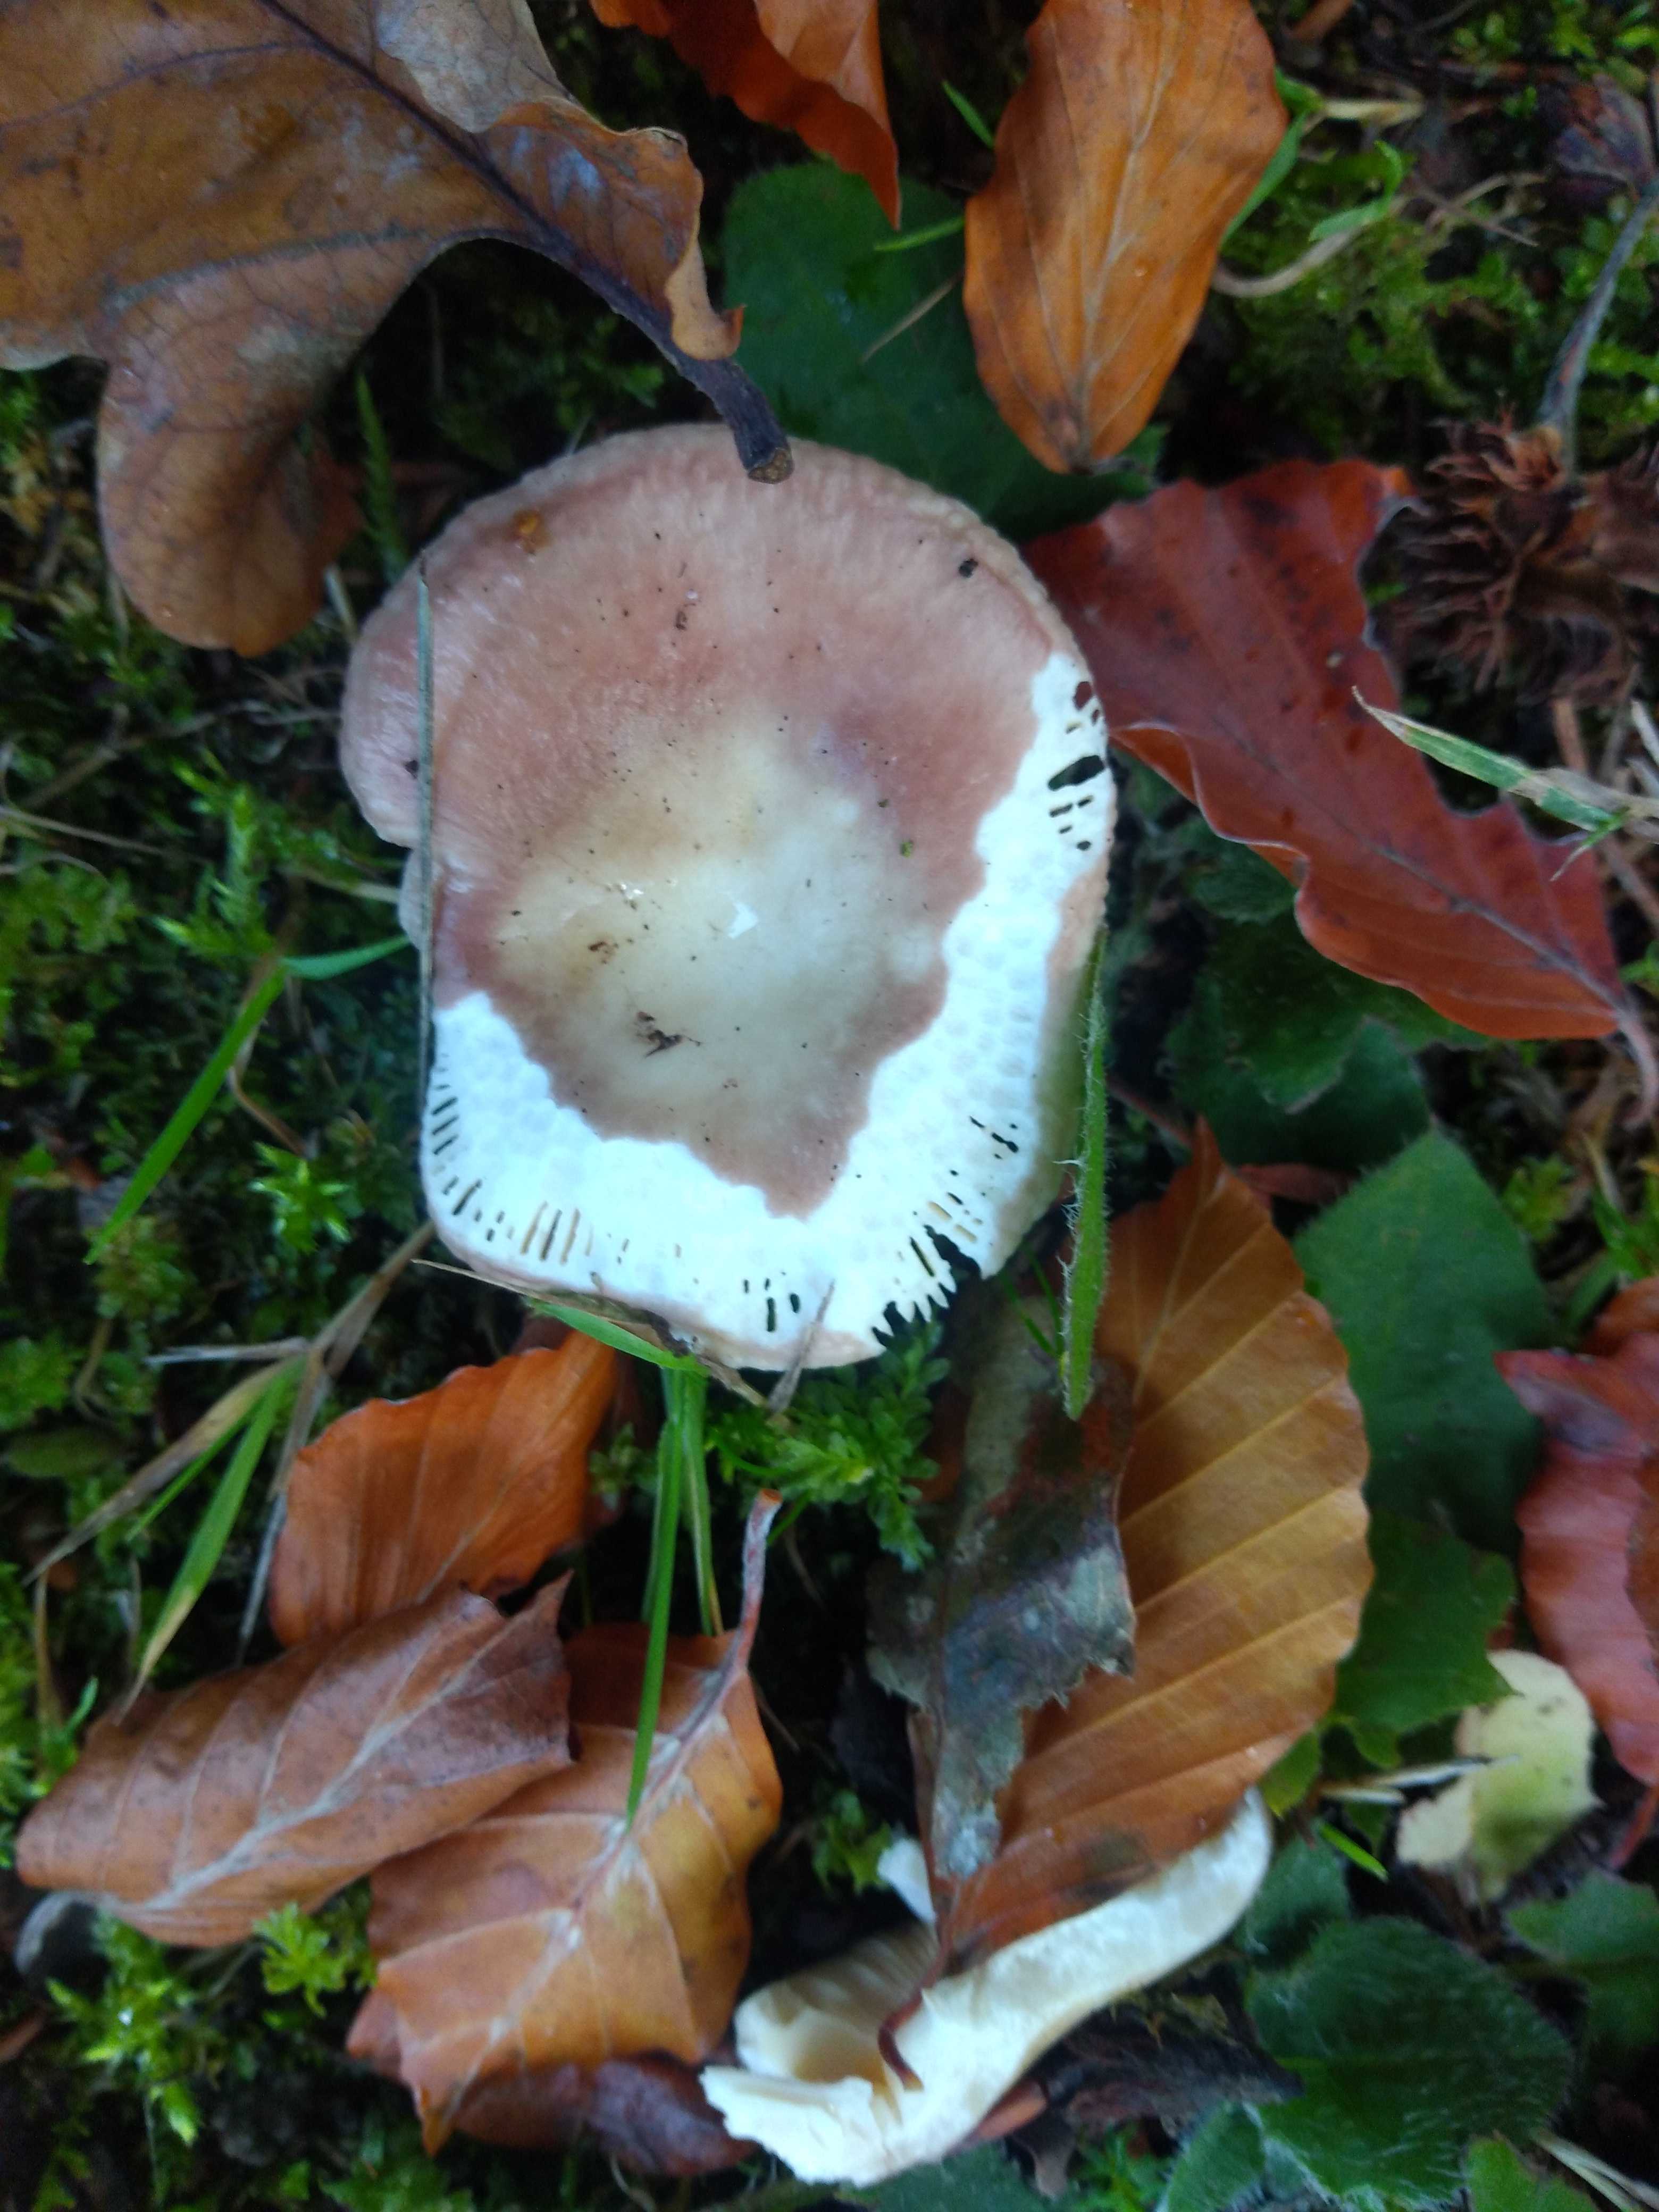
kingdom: Fungi
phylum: Basidiomycota
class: Agaricomycetes
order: Russulales
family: Russulaceae
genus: Russula
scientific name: Russula
